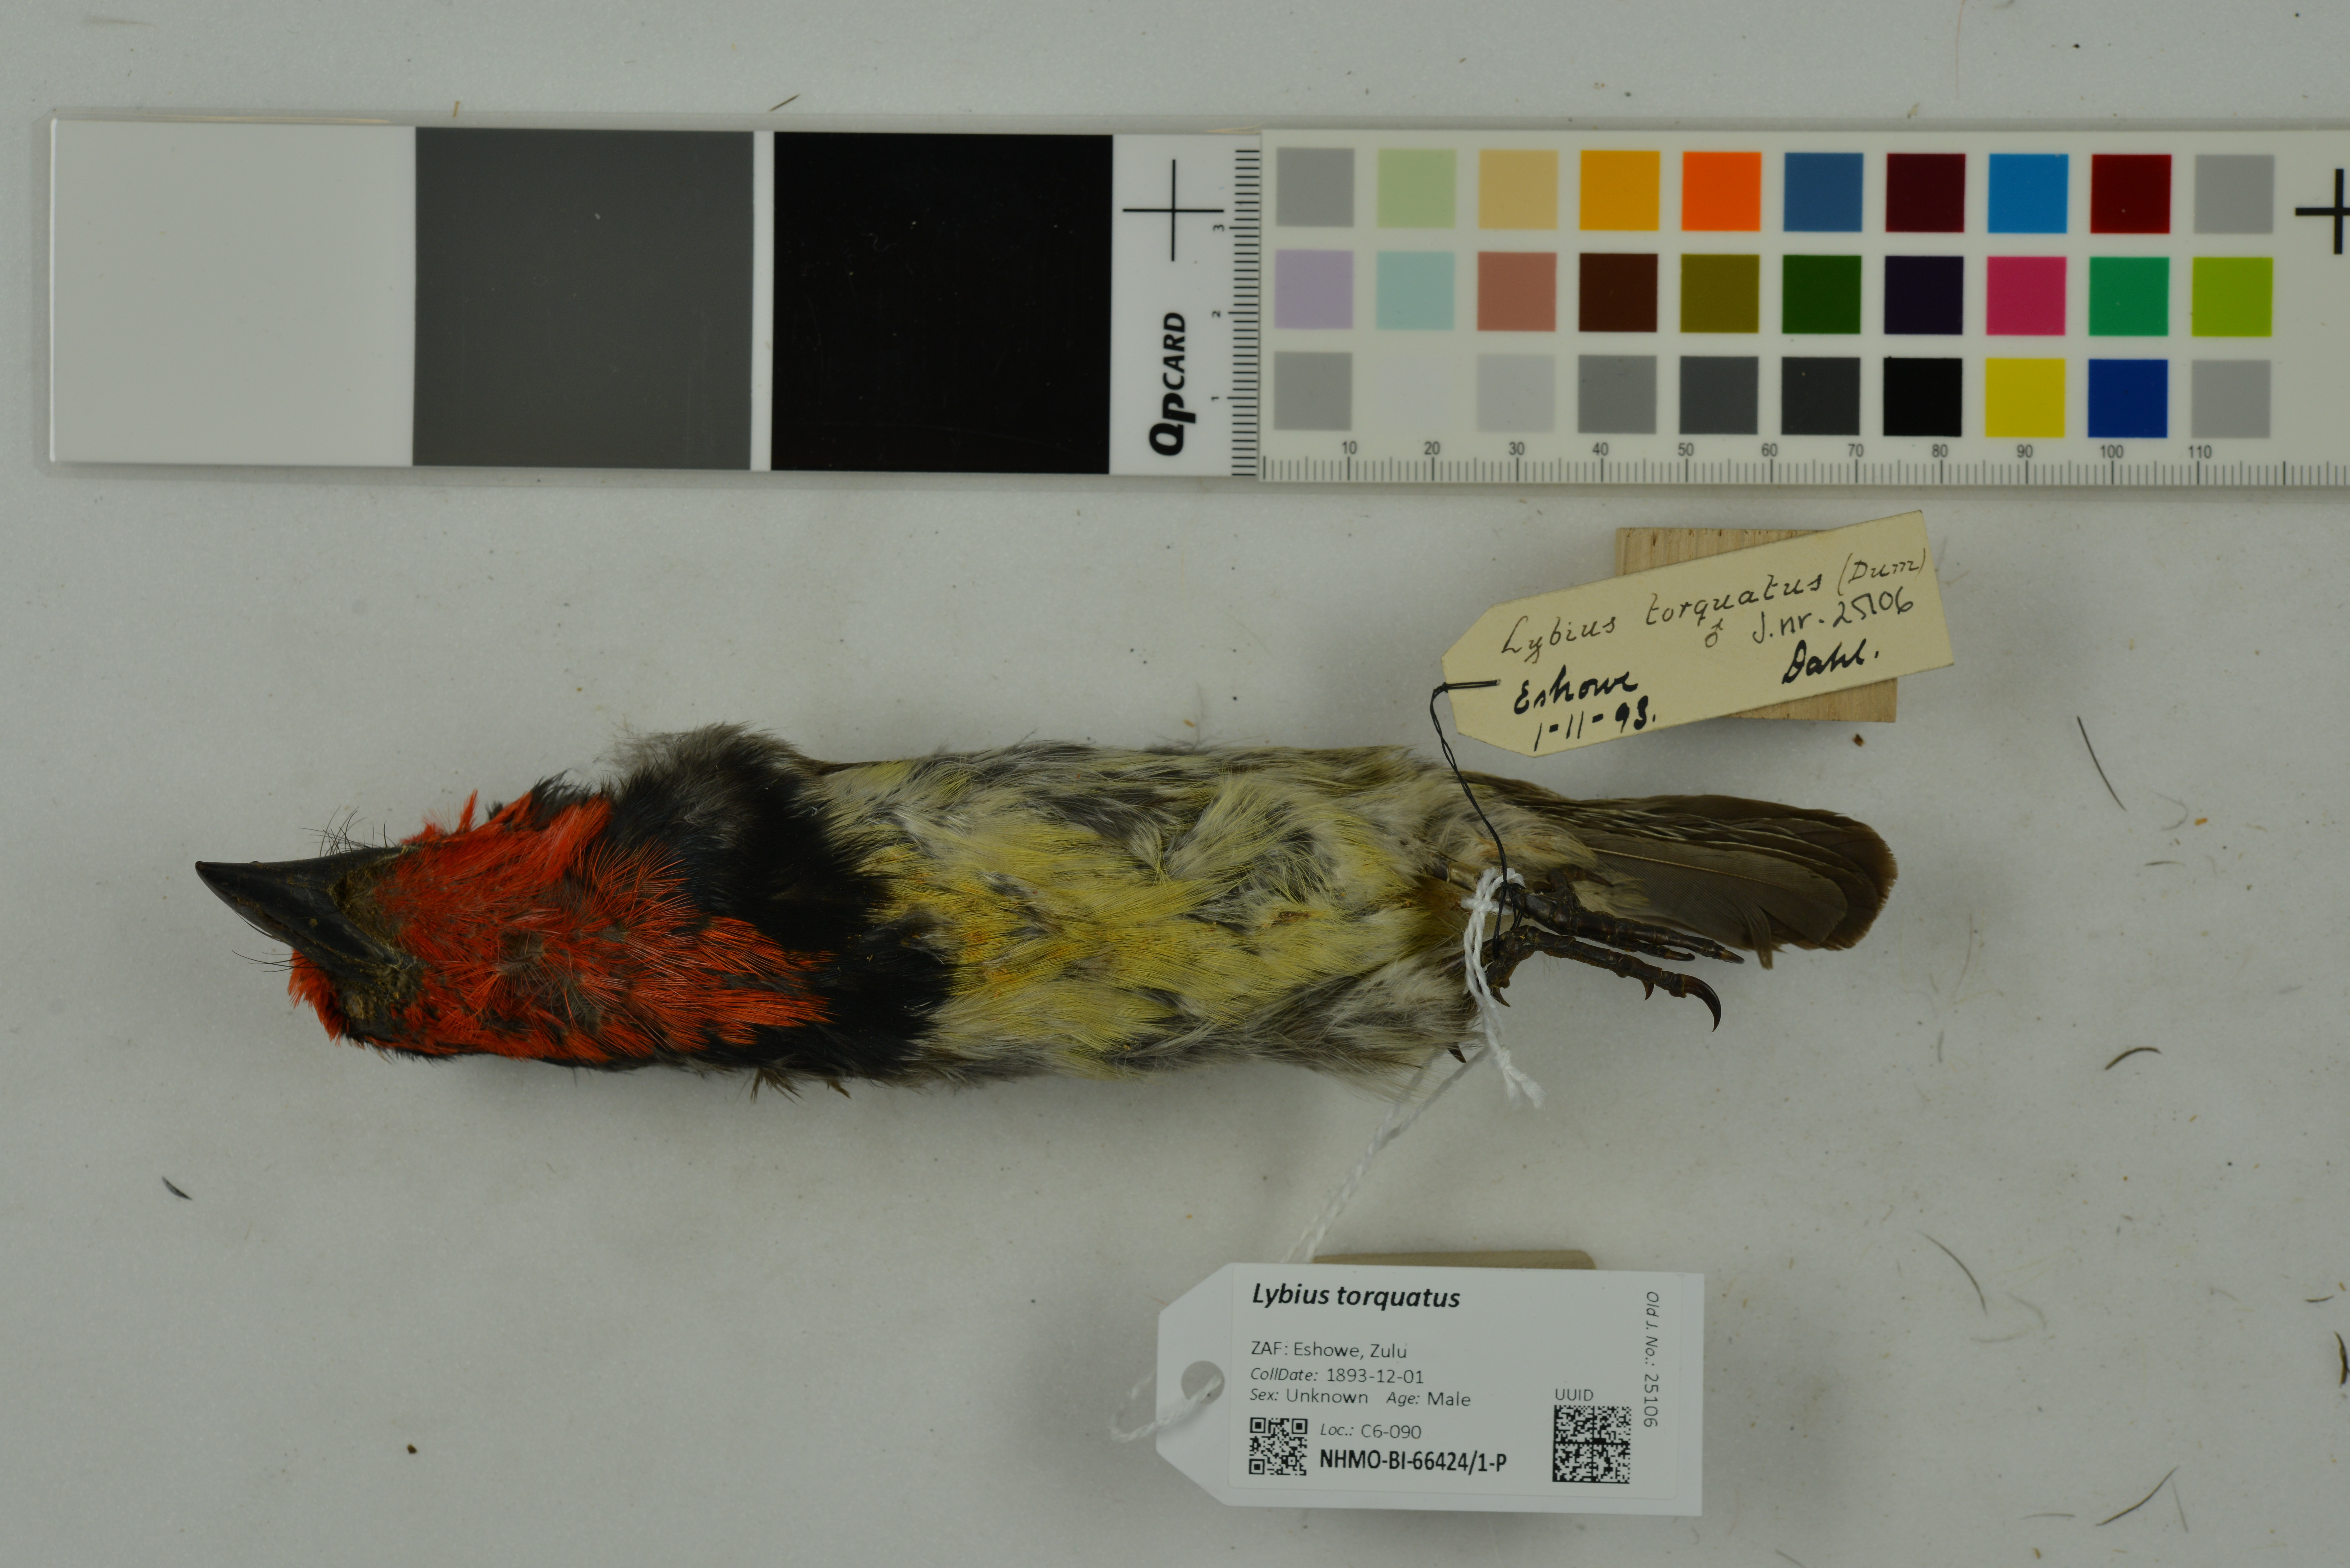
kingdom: Animalia
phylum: Chordata
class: Aves
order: Piciformes
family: Lybiidae
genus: Lybius
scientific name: Lybius torquatus
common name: Black-collared barbet
